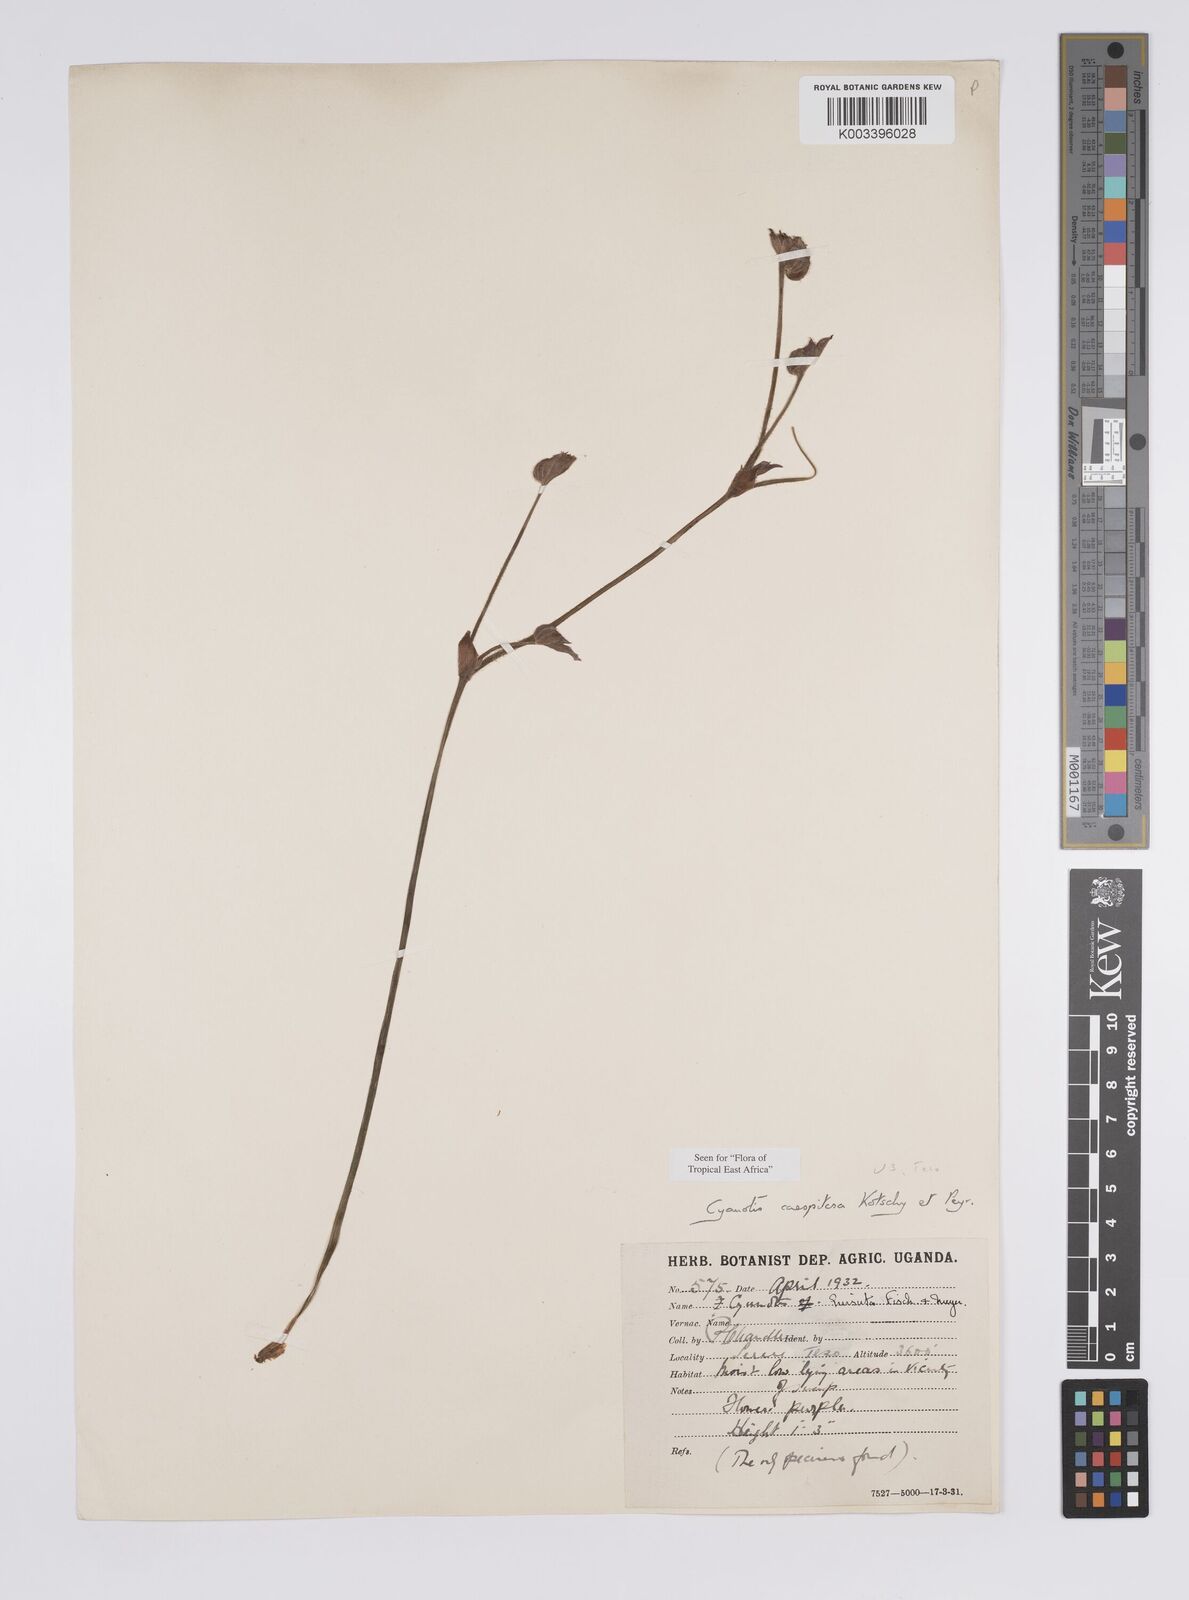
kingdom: Plantae
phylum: Tracheophyta
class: Liliopsida
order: Commelinales
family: Commelinaceae
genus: Cyanotis
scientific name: Cyanotis caespitosa
